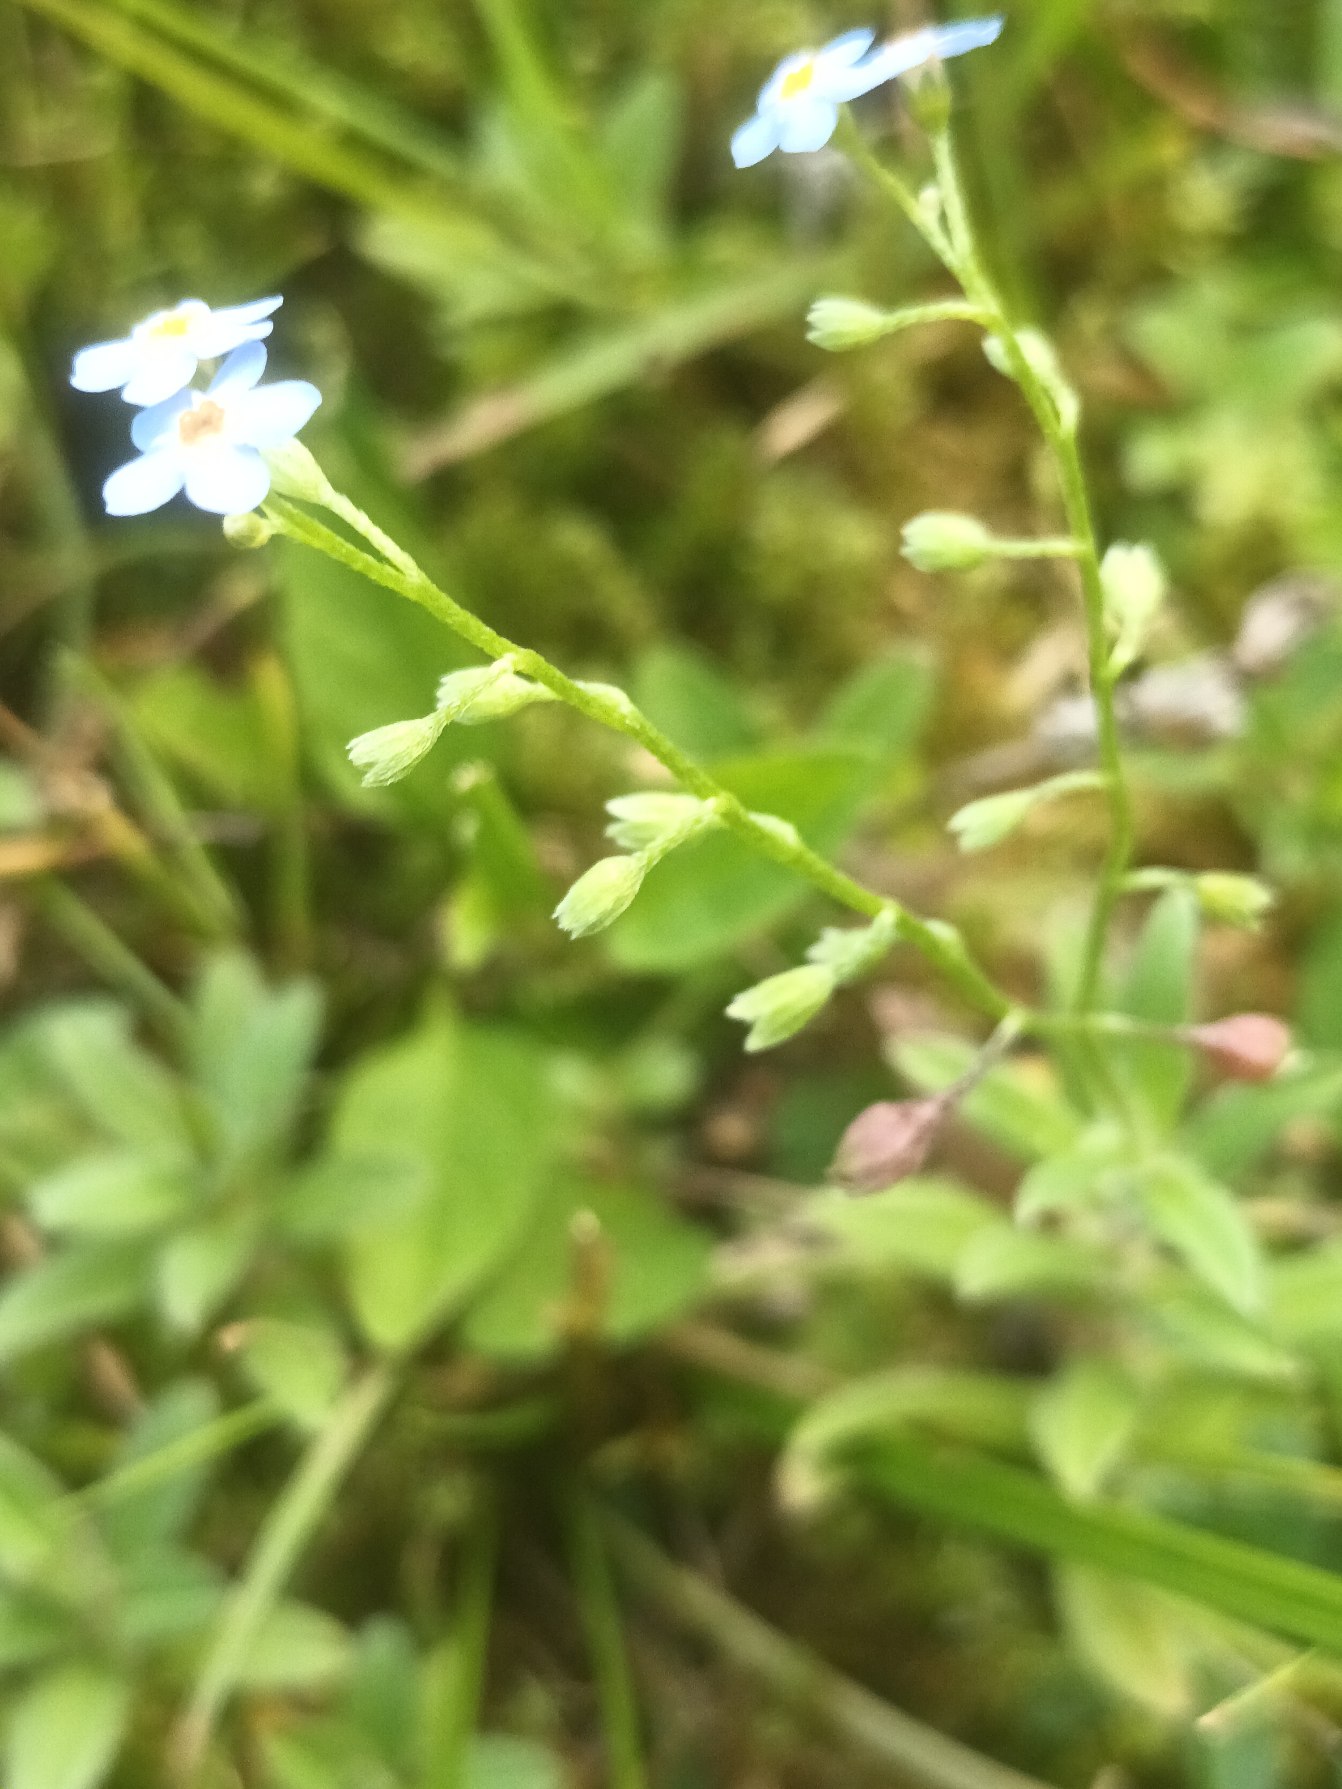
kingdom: Plantae
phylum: Tracheophyta
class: Magnoliopsida
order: Boraginales
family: Boraginaceae
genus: Myosotis
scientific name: Myosotis scorpioides
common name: Eng-forglemmigej
